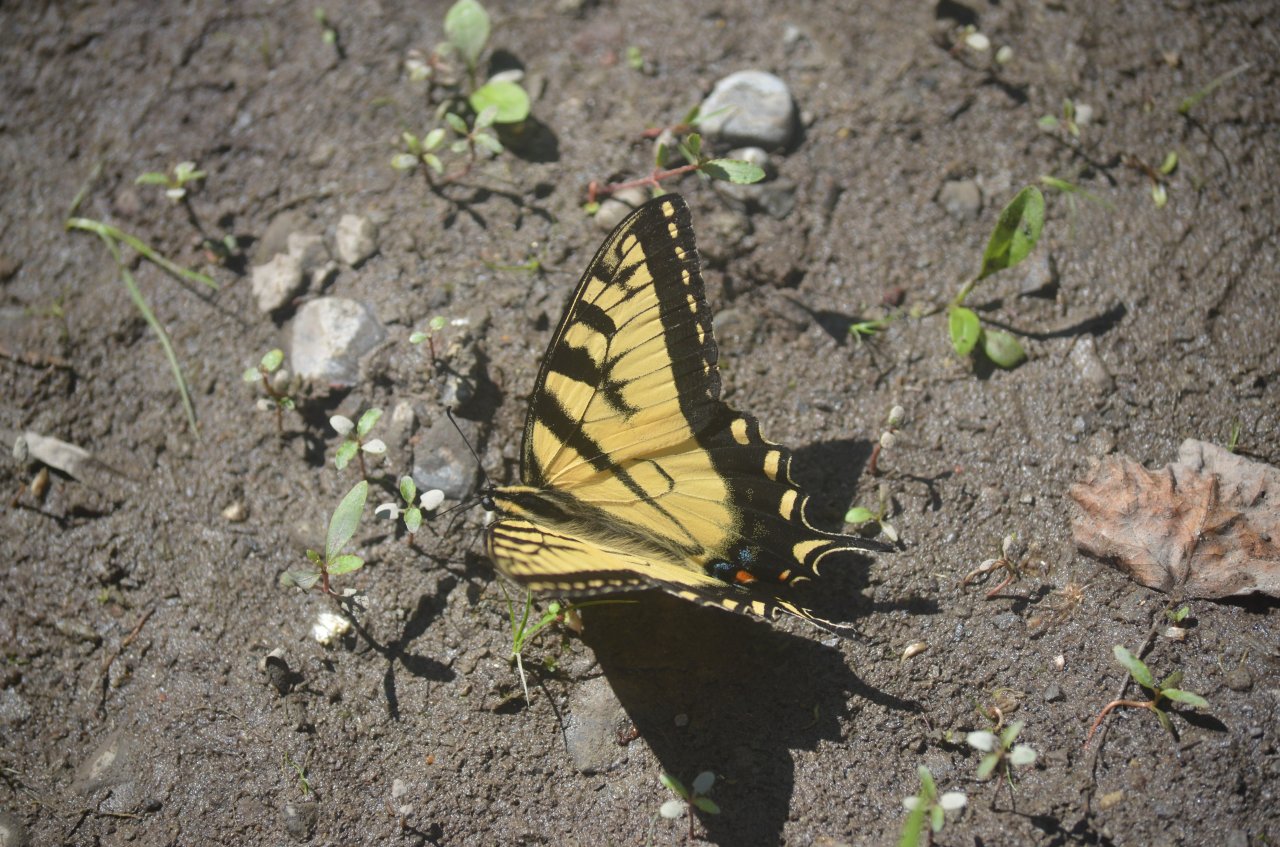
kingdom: Animalia
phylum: Arthropoda
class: Insecta
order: Lepidoptera
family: Papilionidae
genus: Pterourus
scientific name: Pterourus glaucus
